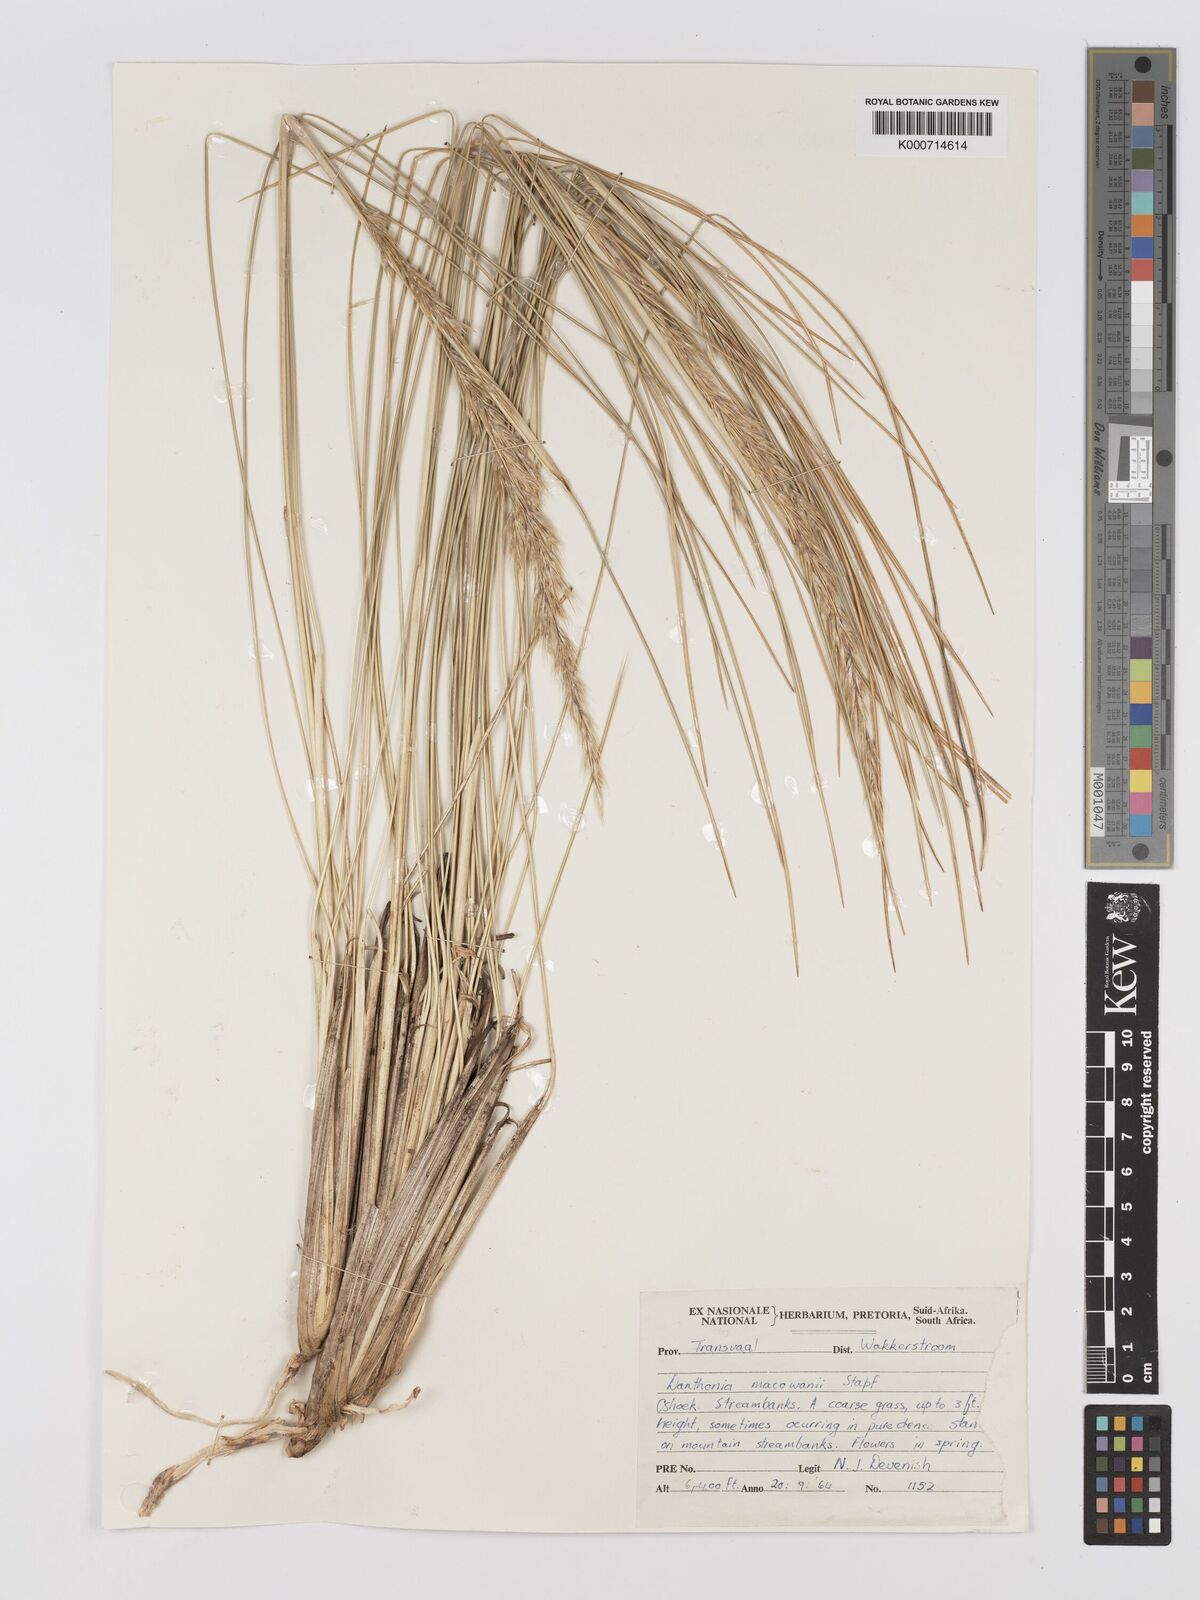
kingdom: Plantae
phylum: Tracheophyta
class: Liliopsida
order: Poales
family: Poaceae
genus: Rytidosperma
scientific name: Rytidosperma
